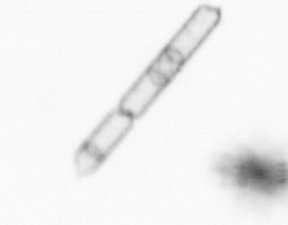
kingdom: Chromista
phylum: Ochrophyta
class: Bacillariophyceae
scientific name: Bacillariophyceae
